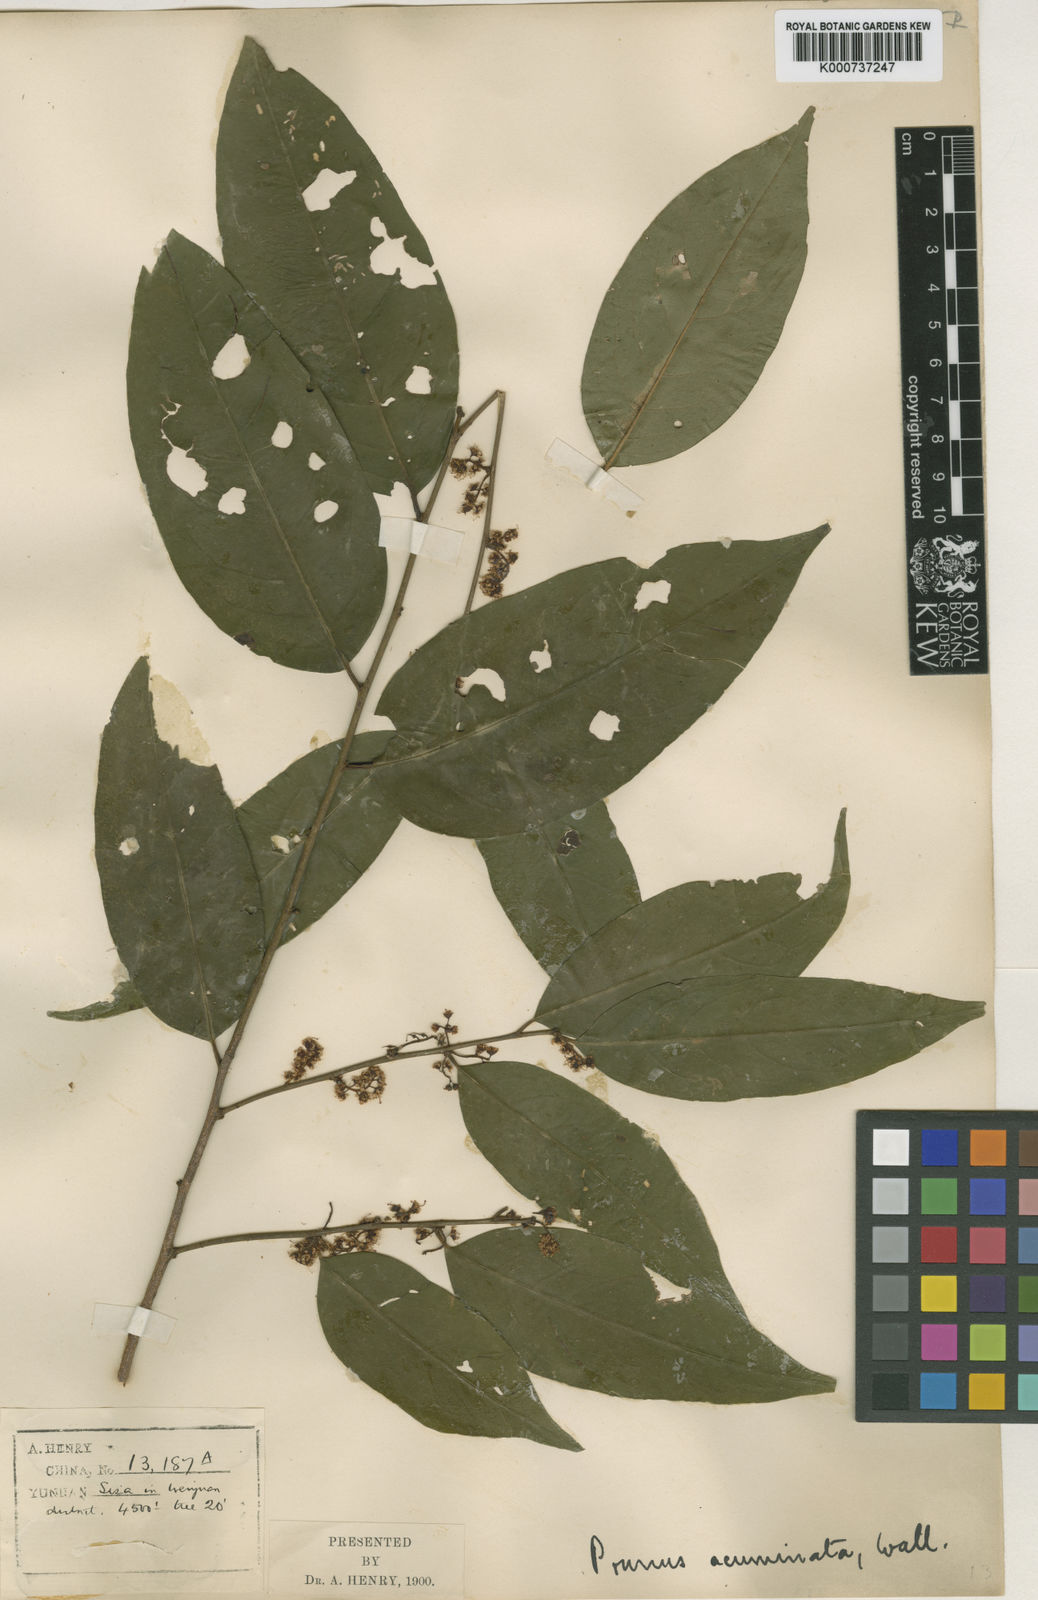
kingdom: Plantae
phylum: Tracheophyta
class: Magnoliopsida
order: Rosales
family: Rosaceae
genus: Prunus
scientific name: Prunus undulata
